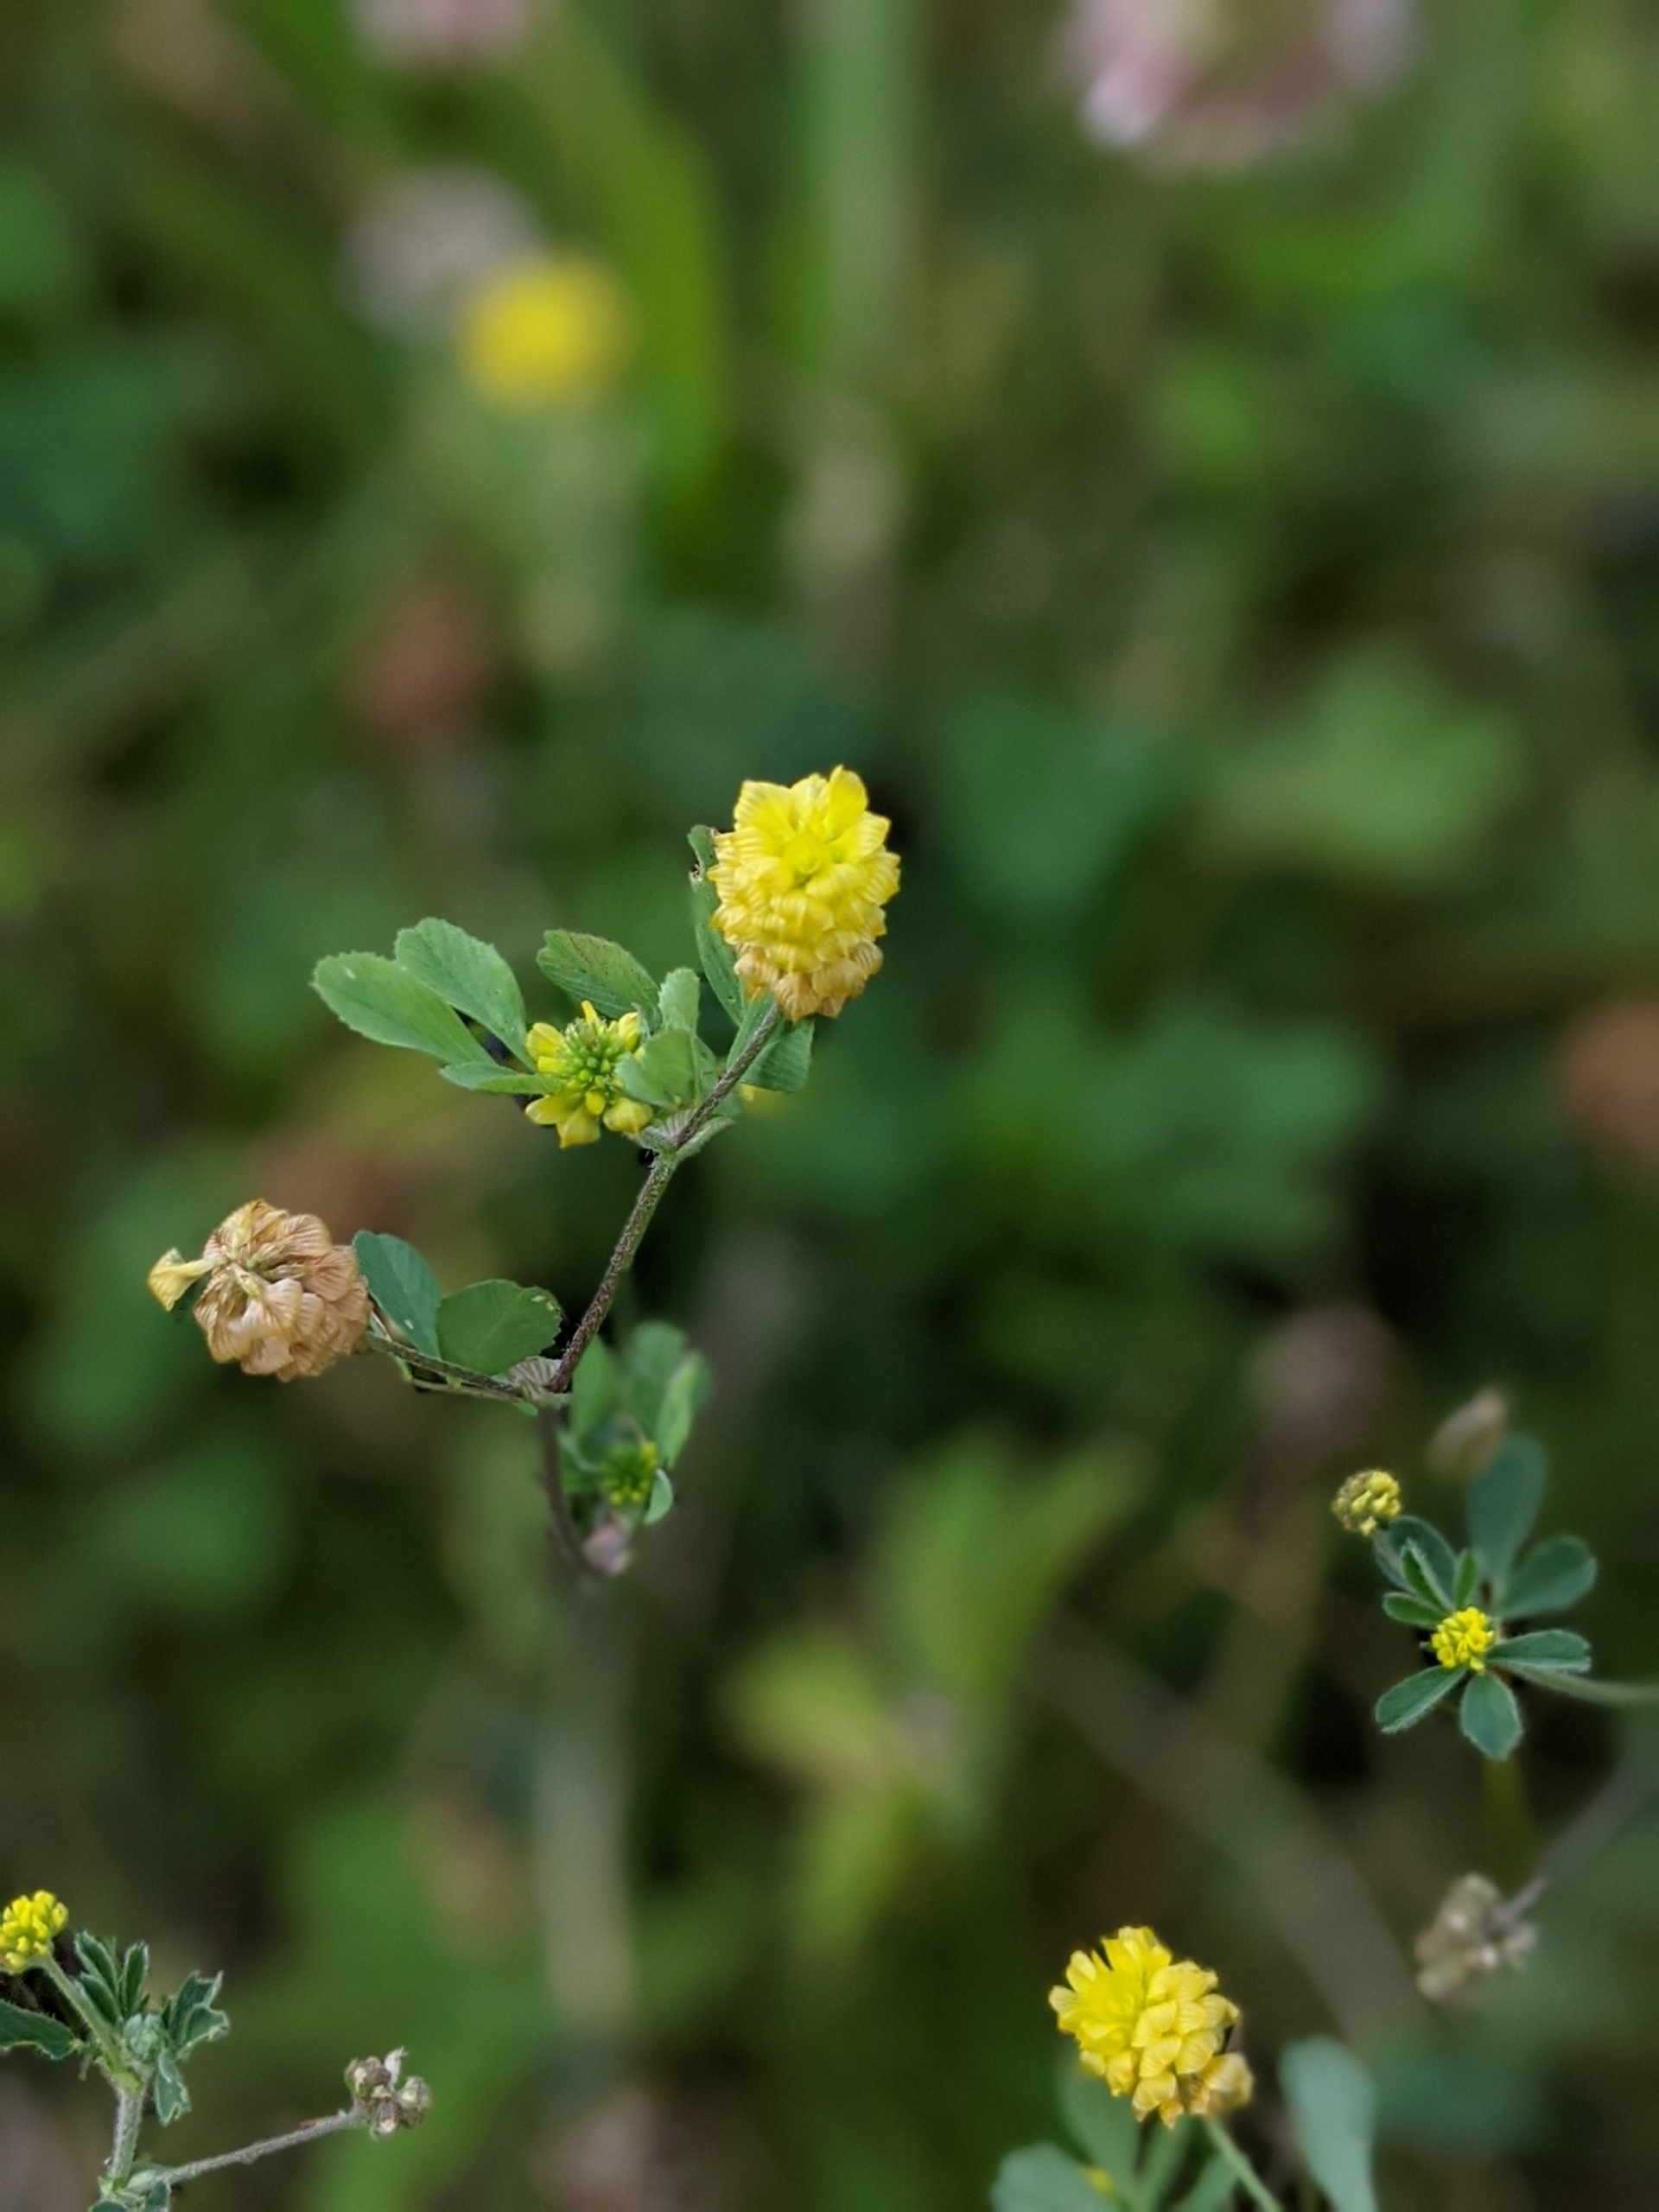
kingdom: Plantae
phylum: Tracheophyta
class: Magnoliopsida
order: Fabales
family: Fabaceae
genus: Trifolium
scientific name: Trifolium campestre
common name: Gul kløver
